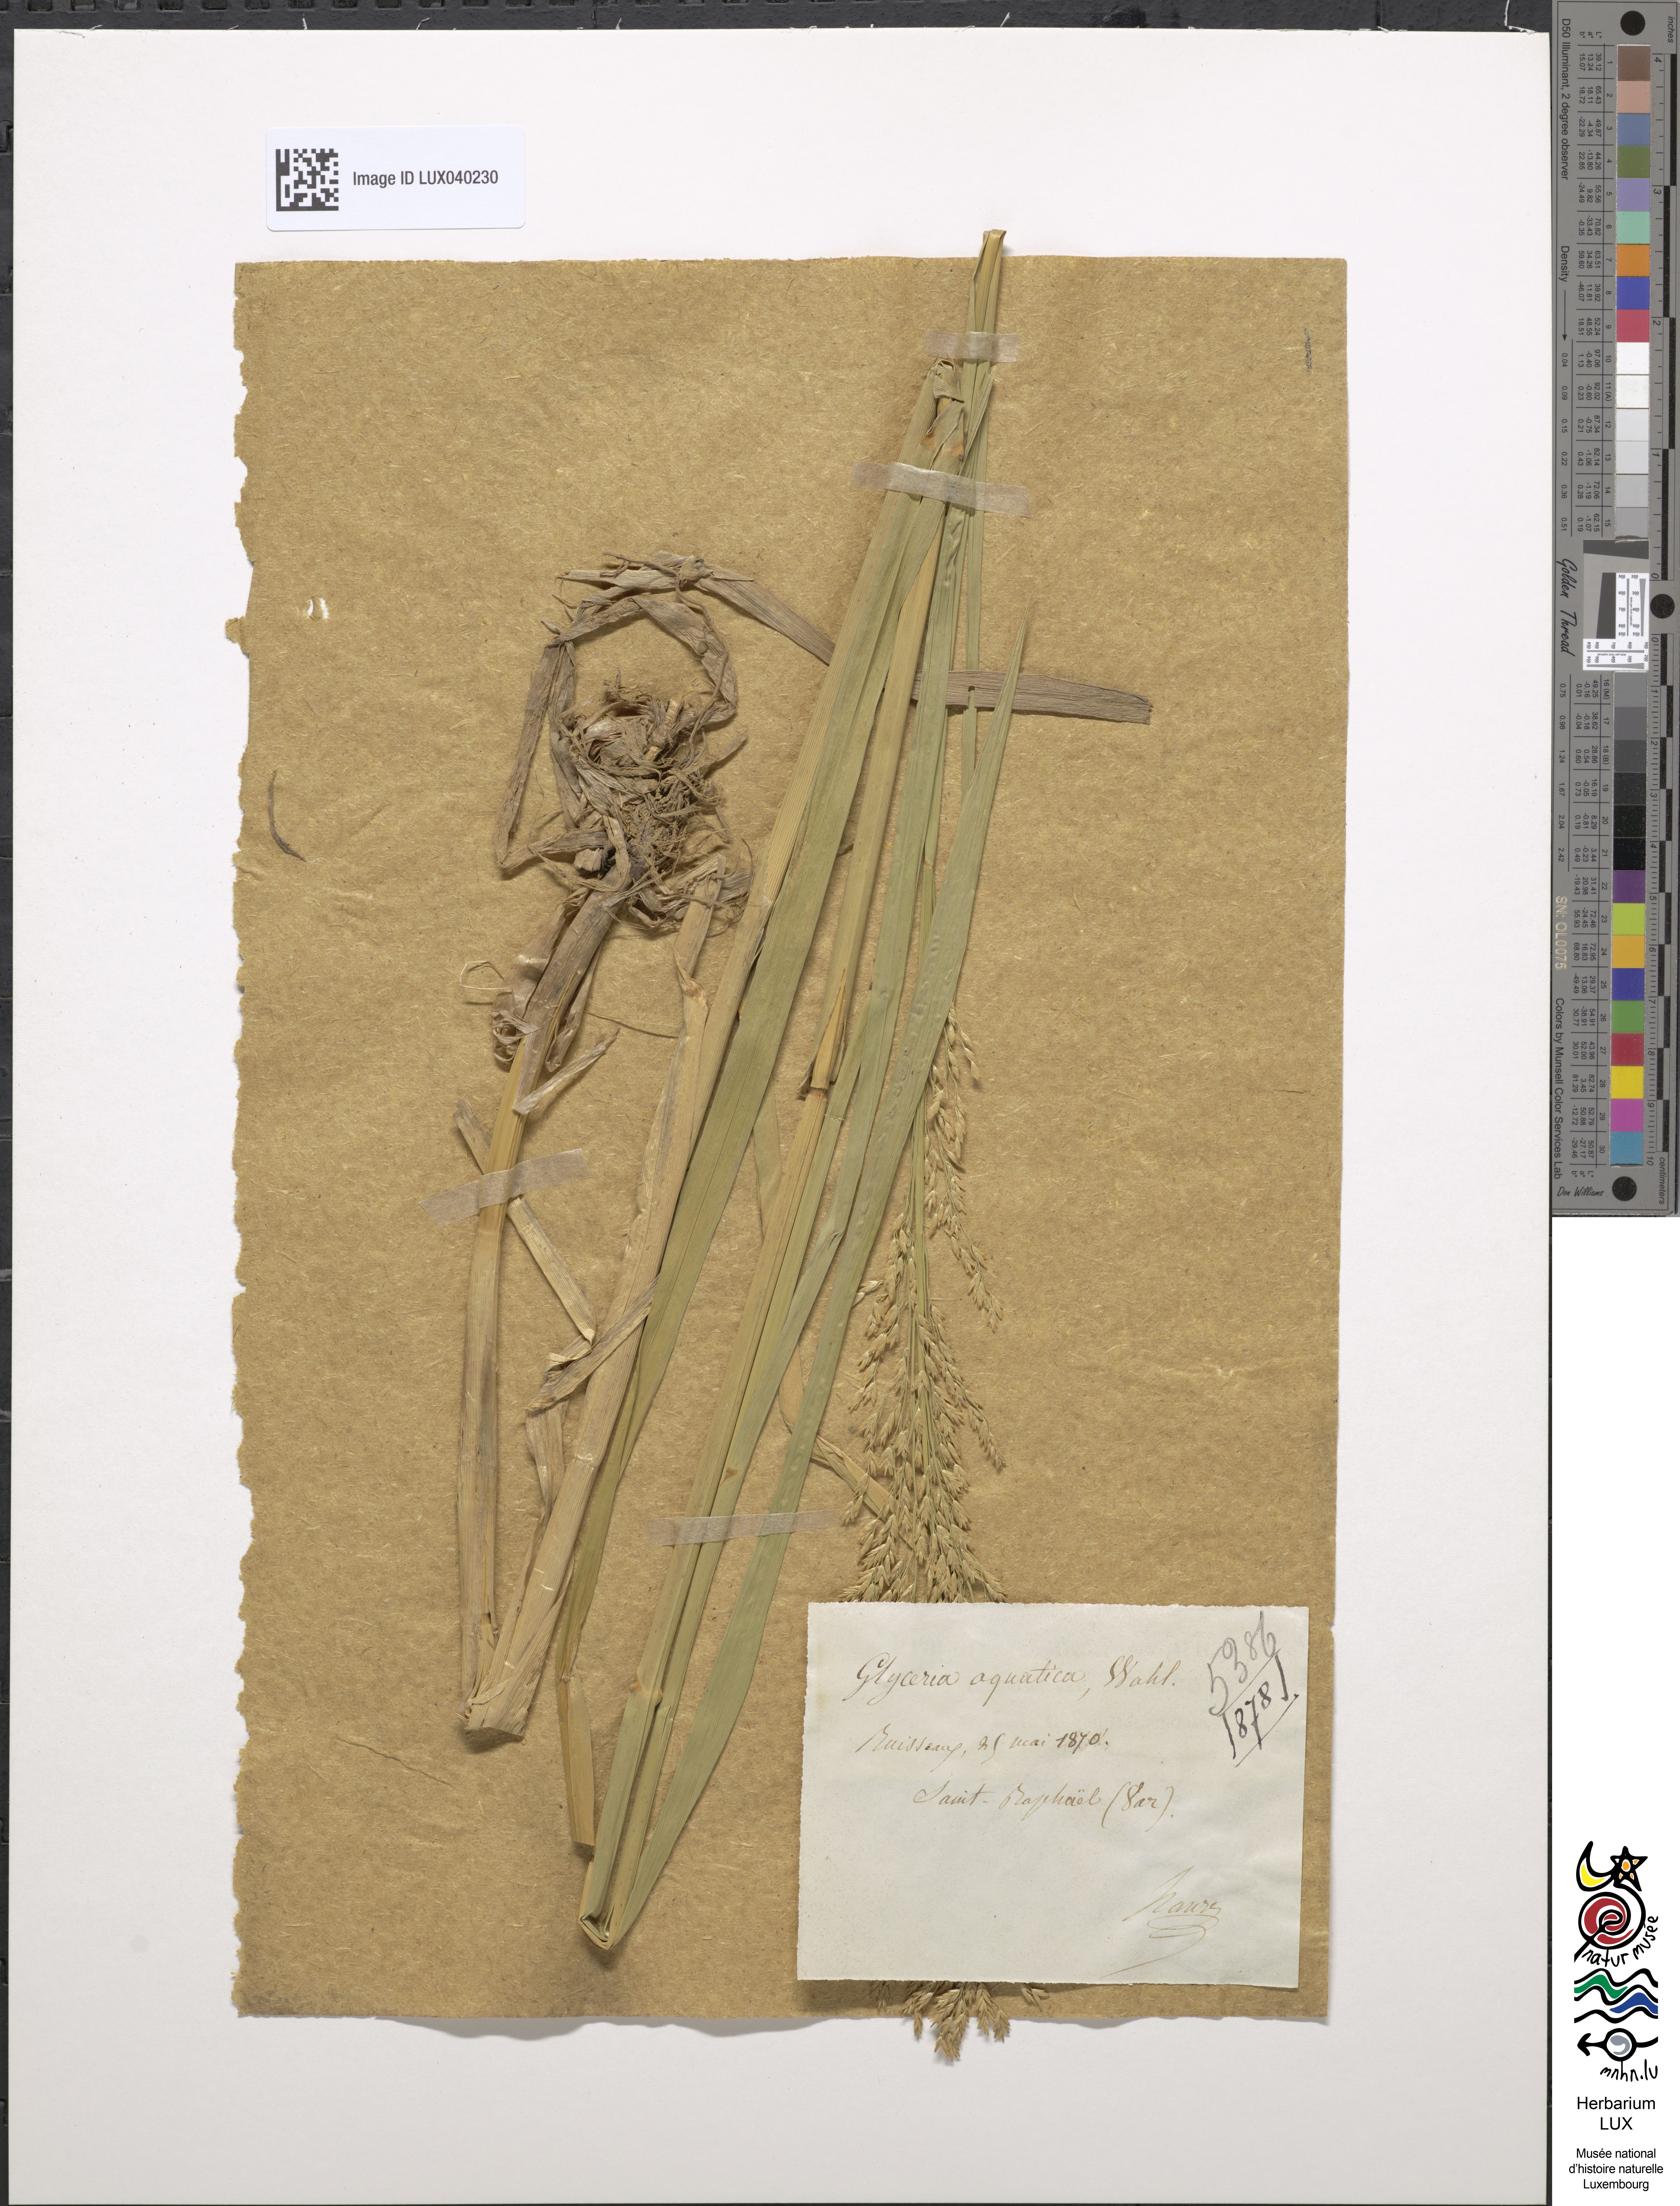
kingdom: Plantae
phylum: Tracheophyta
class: Liliopsida
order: Poales
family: Poaceae
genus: Glyceria
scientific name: Glyceria maxima
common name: Reed mannagrass
